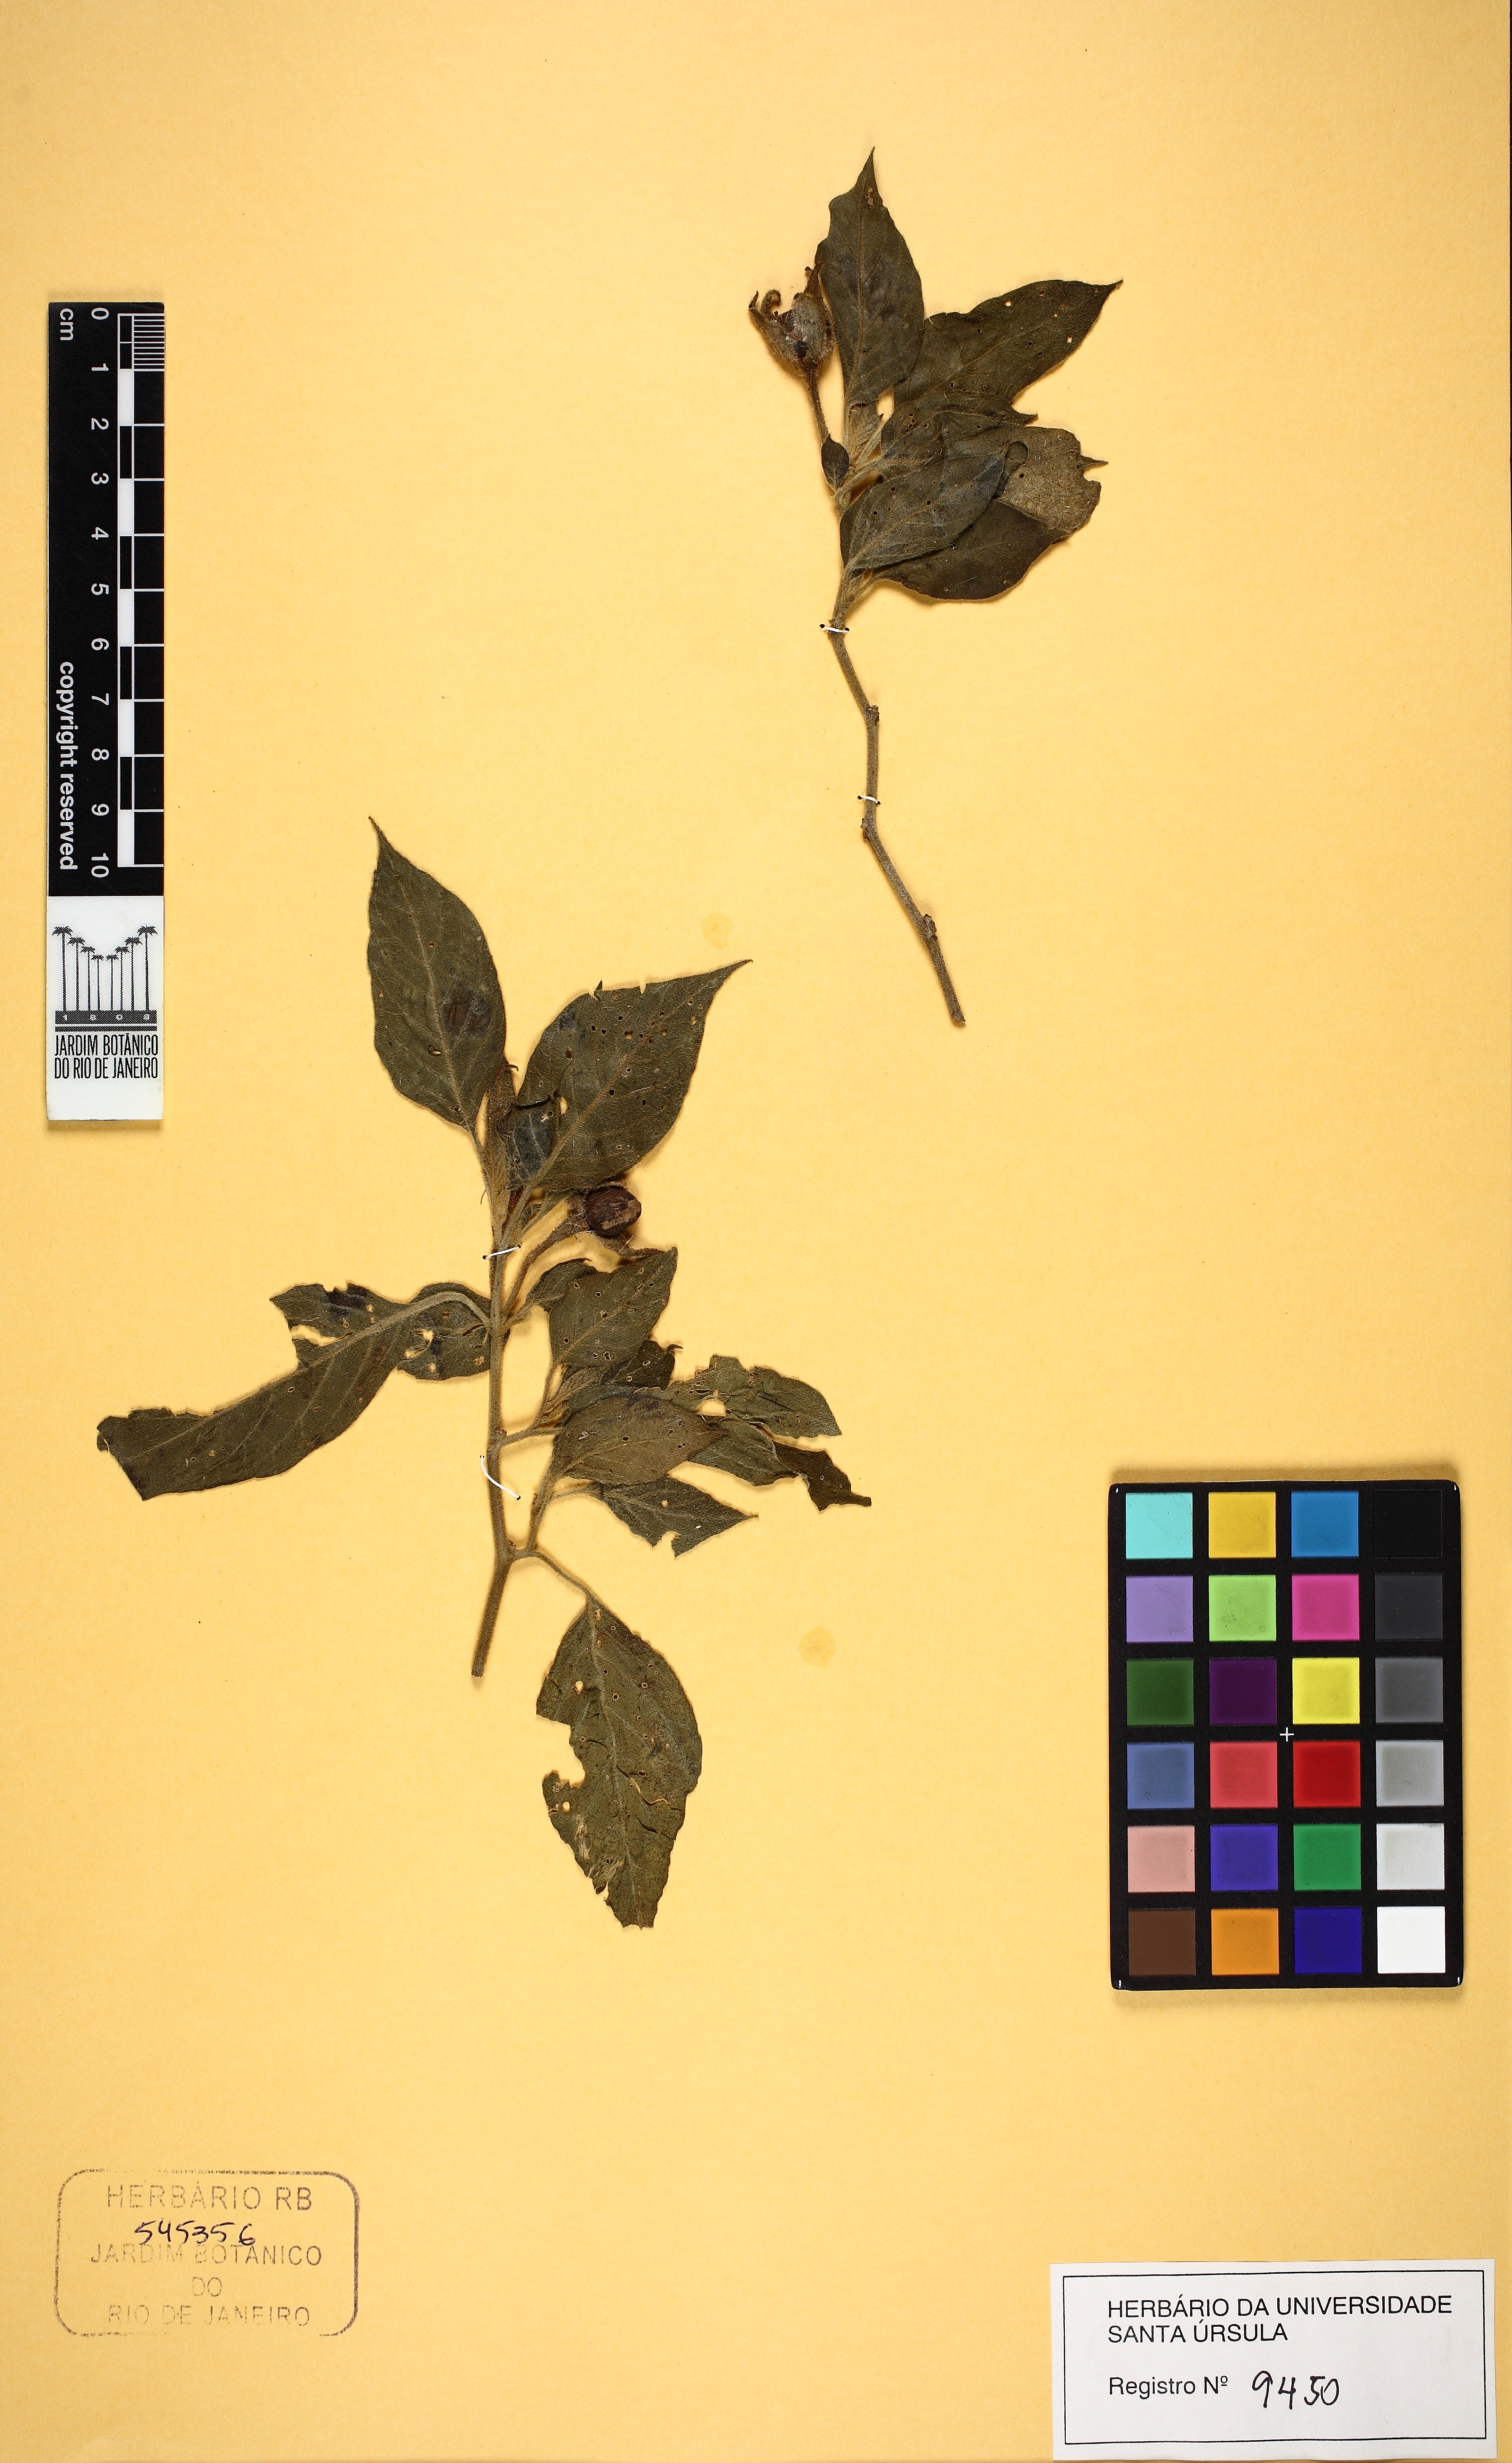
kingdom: Plantae
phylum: Tracheophyta
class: Magnoliopsida
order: Solanales
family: Solanaceae
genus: Athenaea
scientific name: Athenaea
